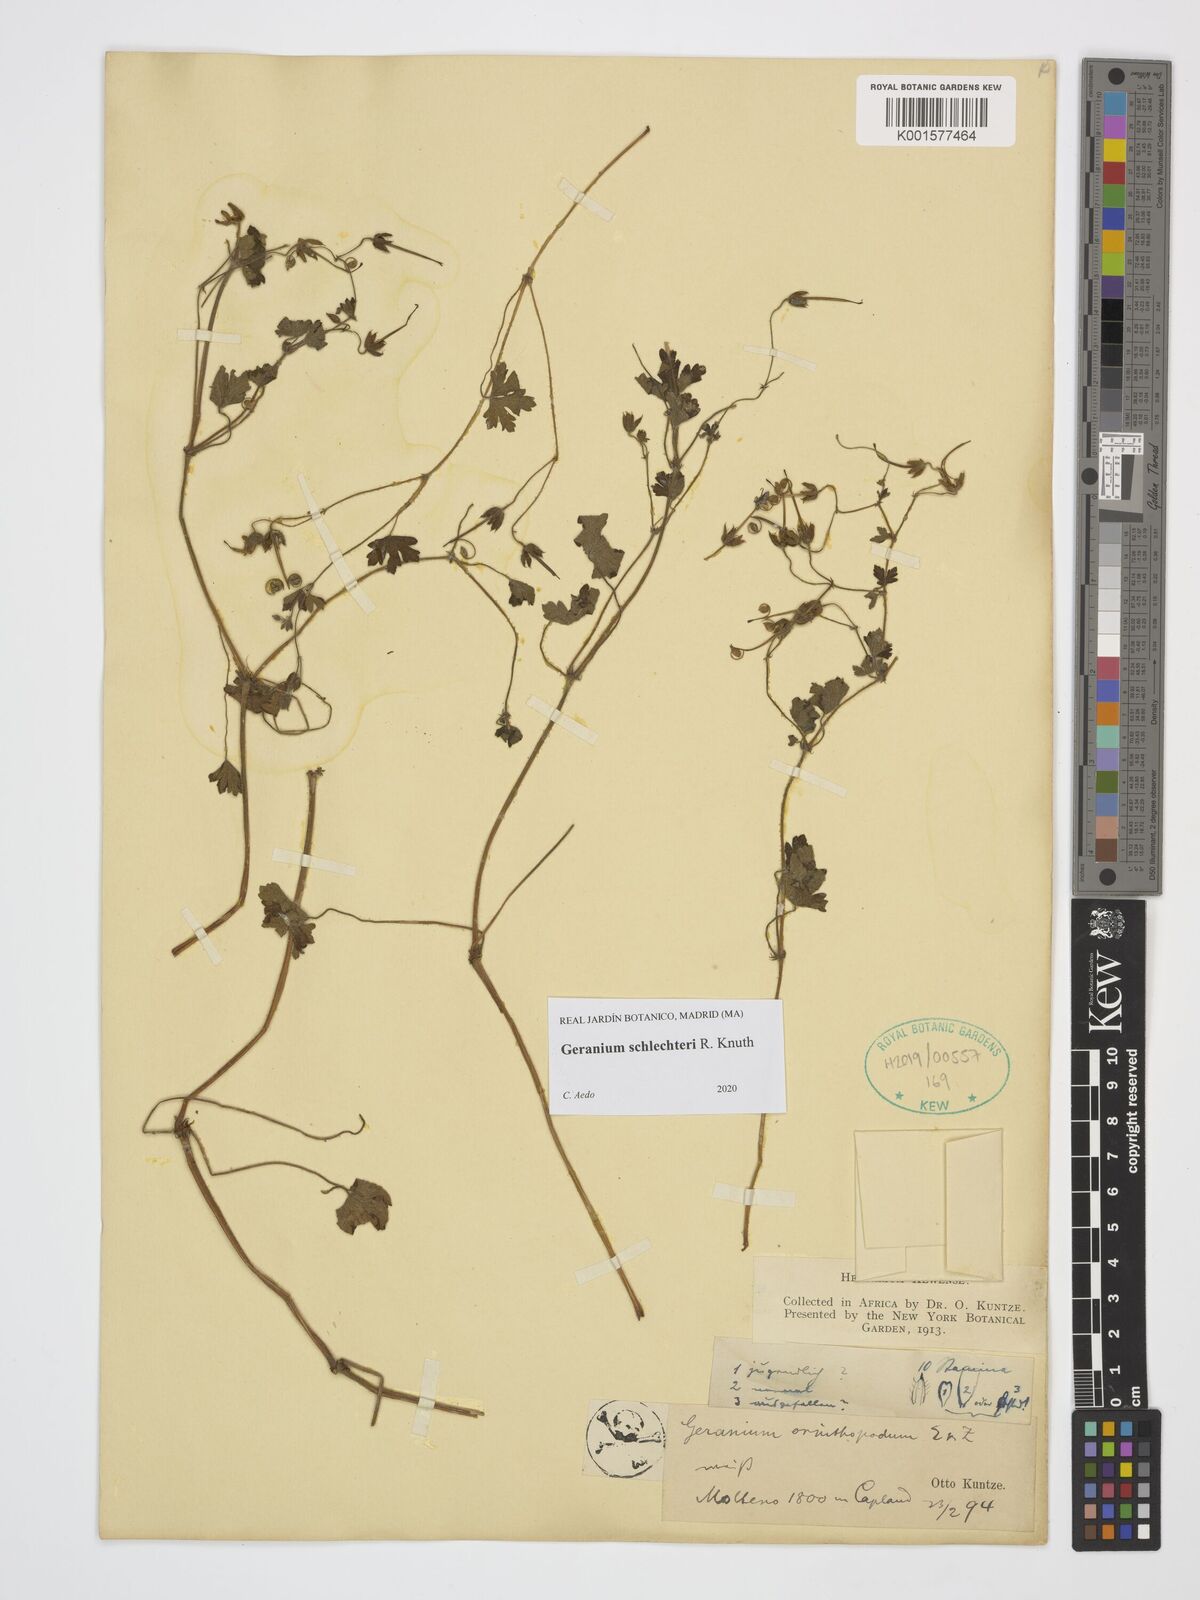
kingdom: Plantae
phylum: Tracheophyta
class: Magnoliopsida
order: Geraniales
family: Geraniaceae
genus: Geranium
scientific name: Geranium schlechteri
